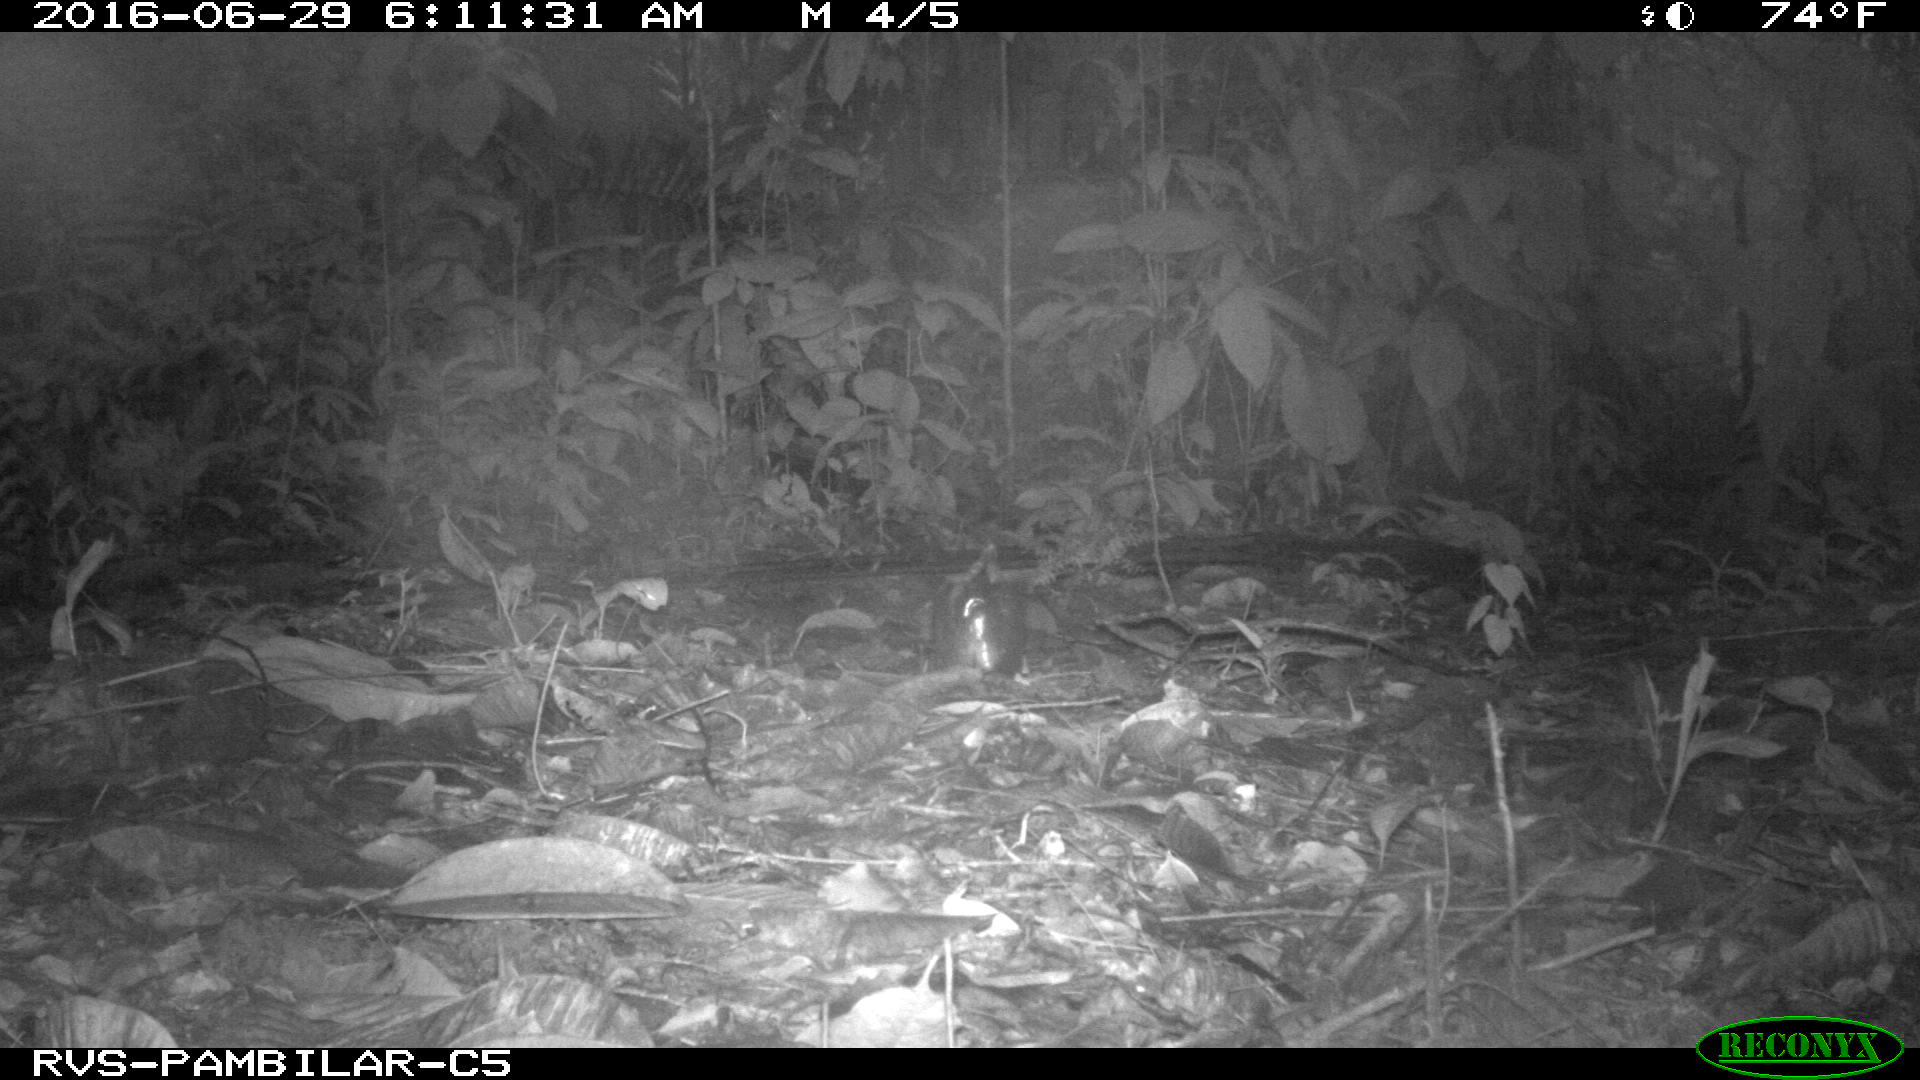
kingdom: Animalia
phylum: Chordata
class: Mammalia
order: Carnivora
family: Felidae
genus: Leopardus
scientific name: Leopardus pardalis
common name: Ocelot
